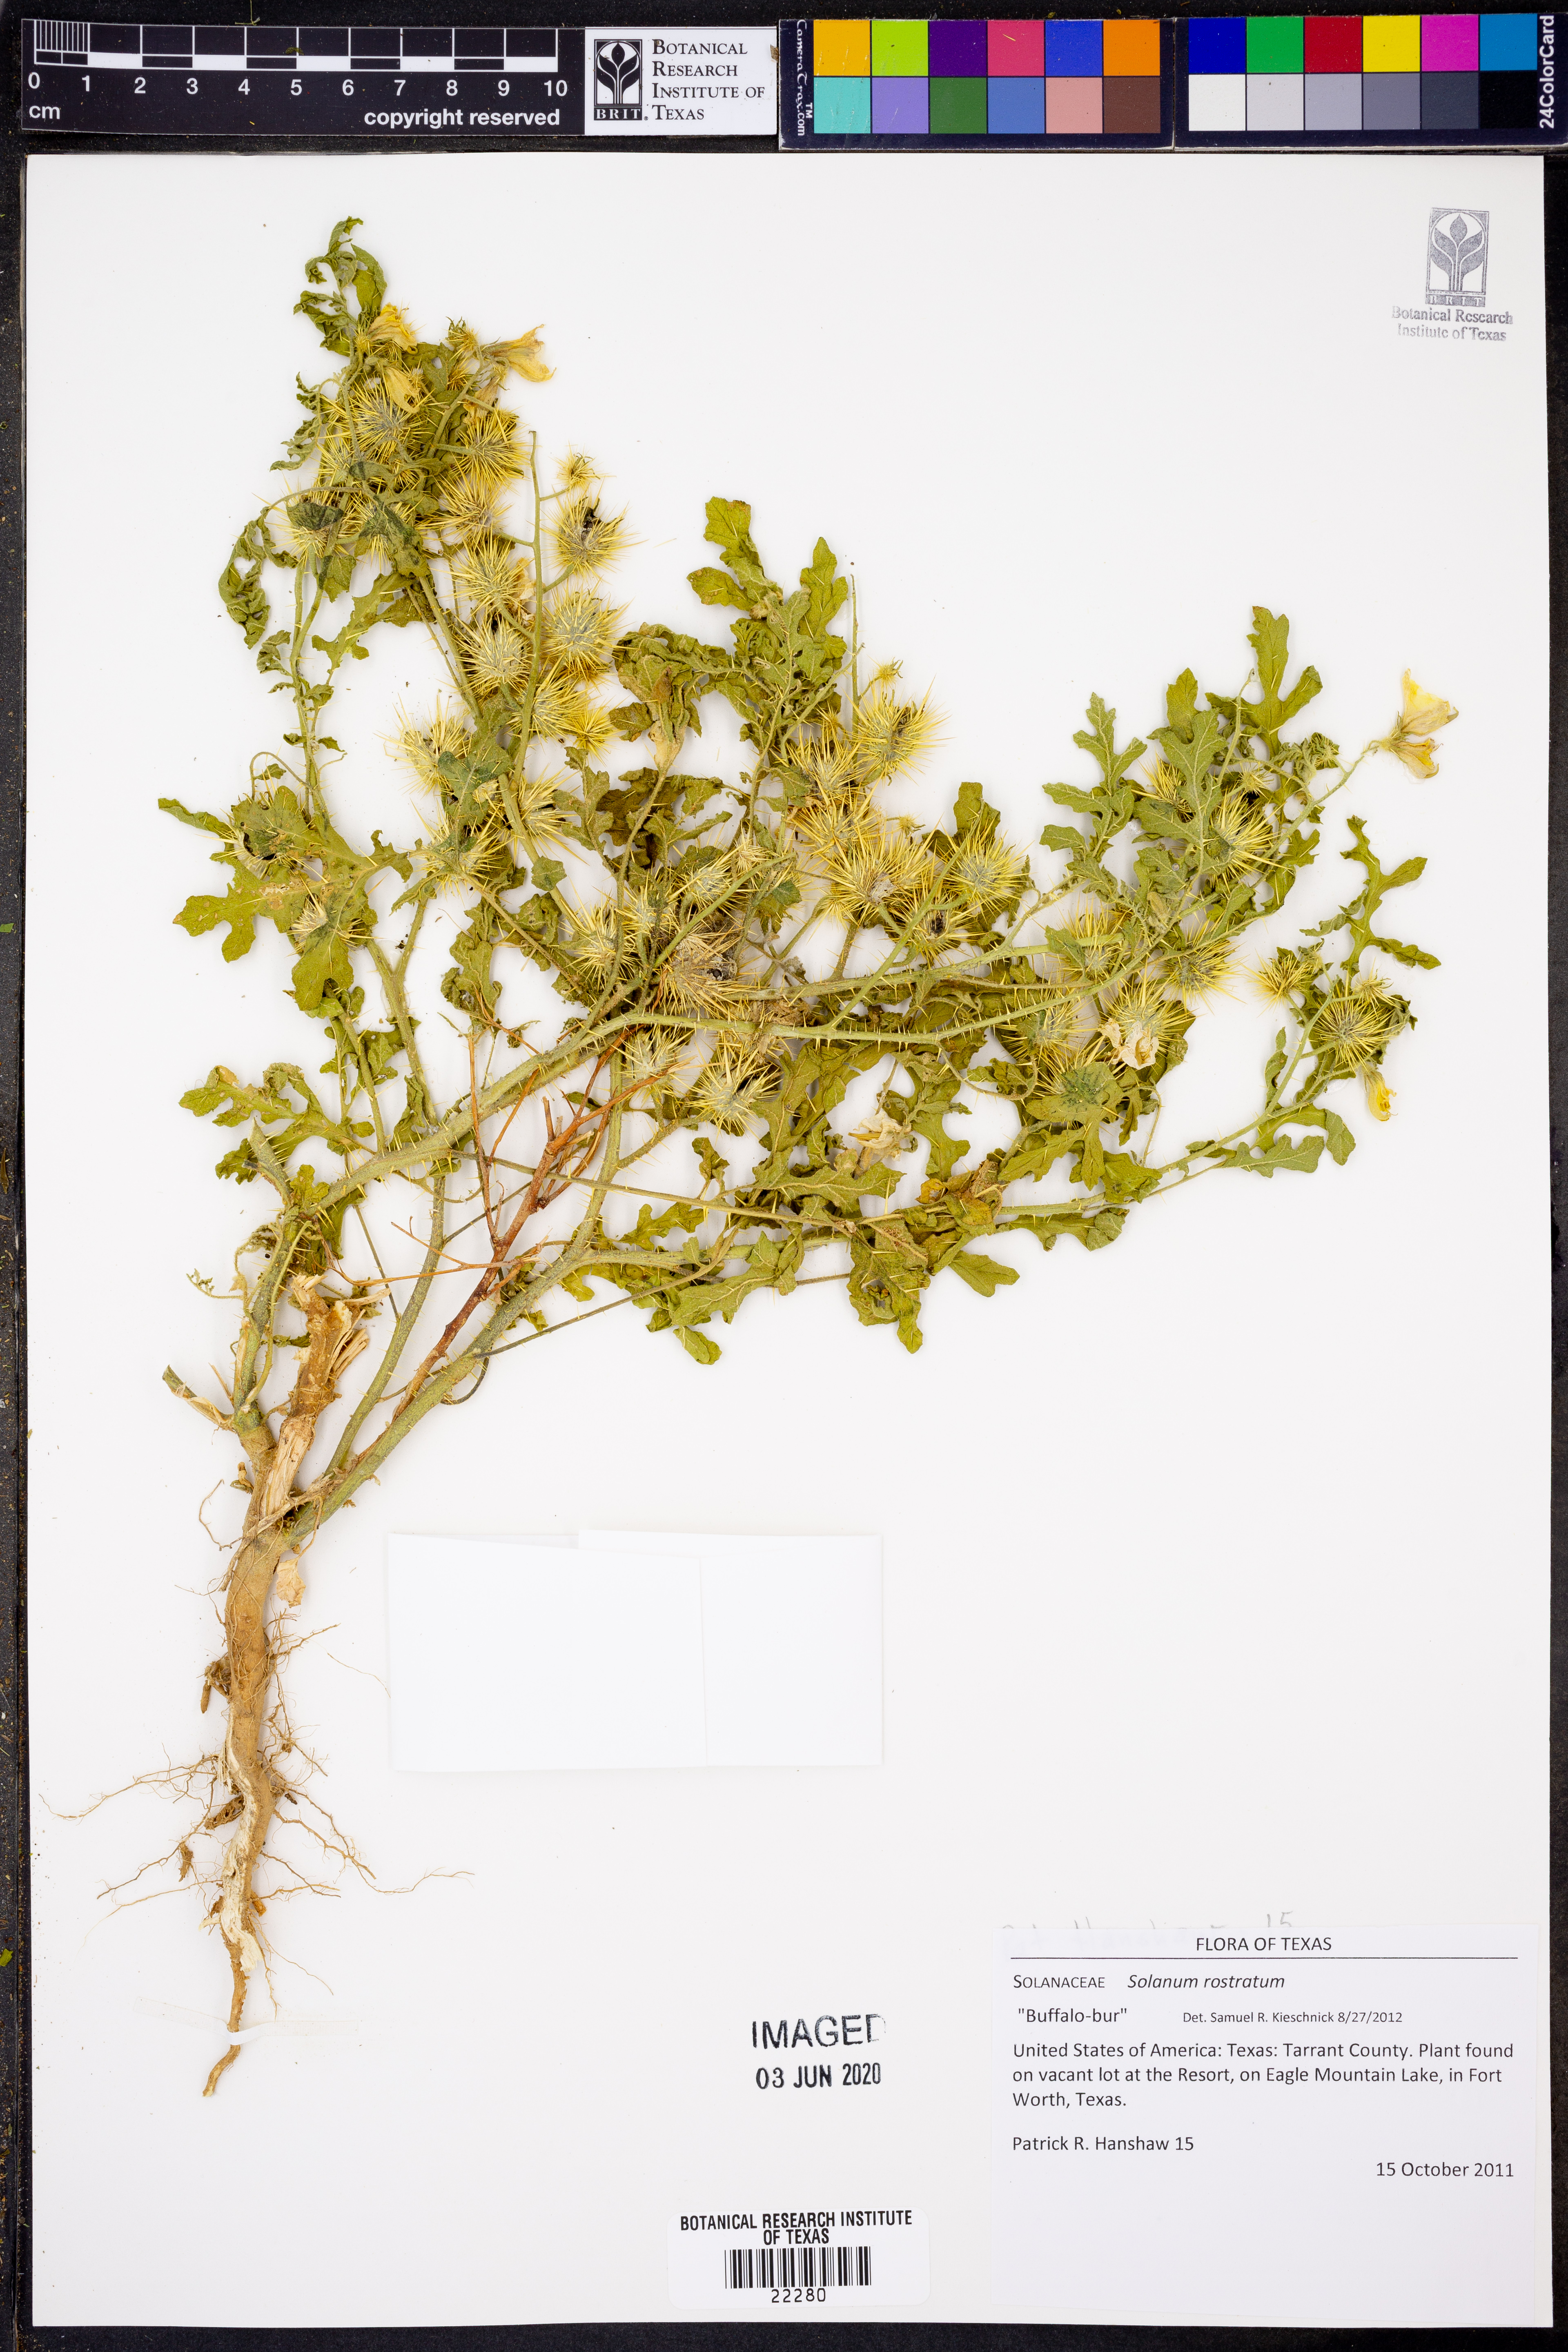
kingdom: Plantae
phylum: Tracheophyta
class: Magnoliopsida
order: Solanales
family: Solanaceae
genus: Solanum
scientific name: Solanum angustifolium
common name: Buffalobur nightshade
